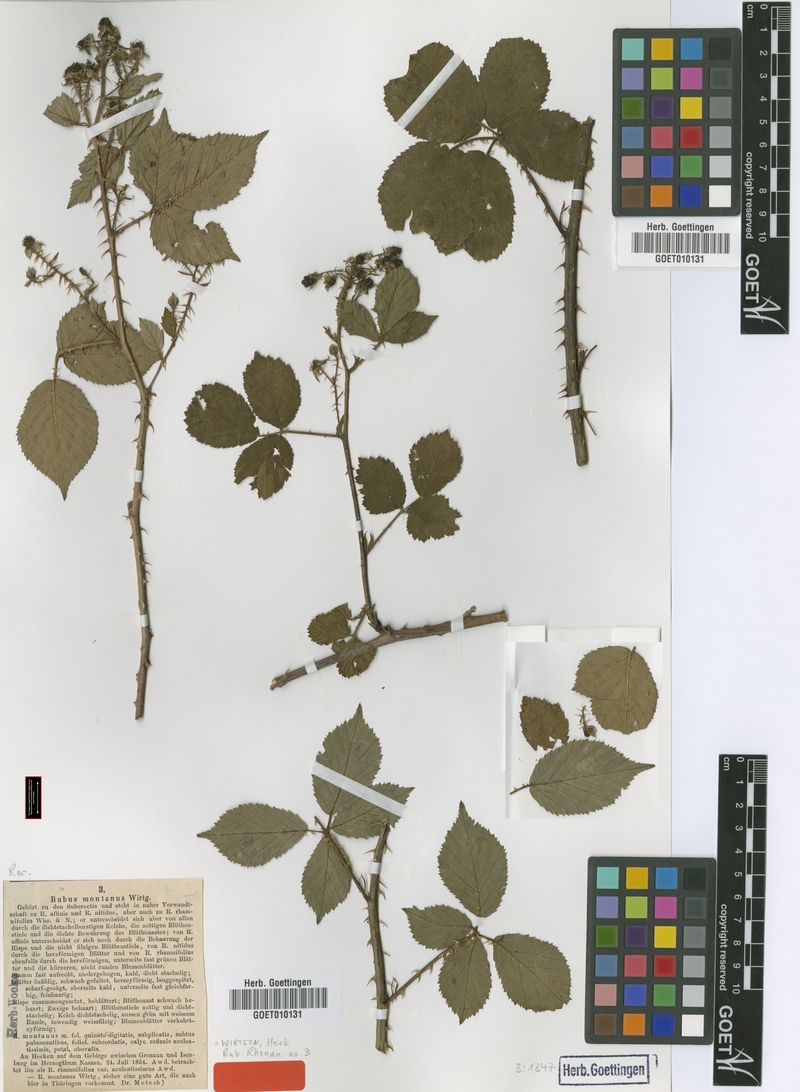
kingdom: Plantae
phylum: Tracheophyta
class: Magnoliopsida
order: Rosales
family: Rosaceae
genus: Rubus
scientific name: Rubus senticosus
